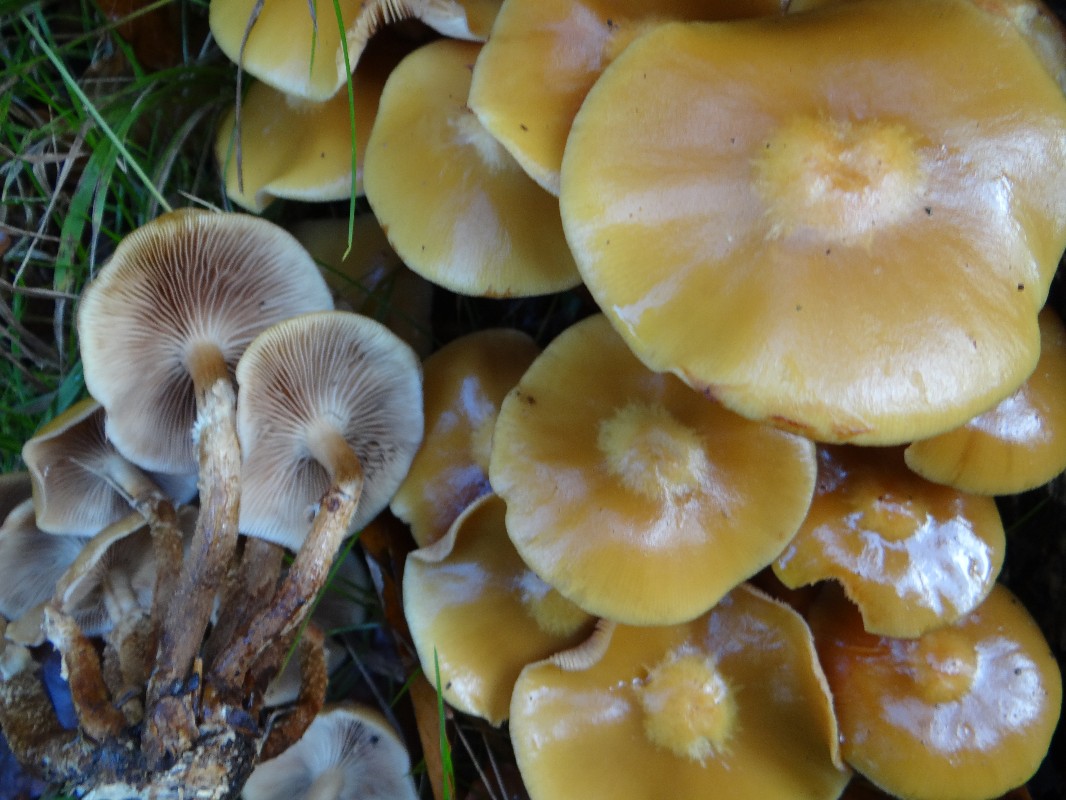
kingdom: Fungi
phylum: Basidiomycota
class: Agaricomycetes
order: Agaricales
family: Strophariaceae
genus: Kuehneromyces
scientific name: Kuehneromyces mutabilis
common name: foranderlig skælhat
